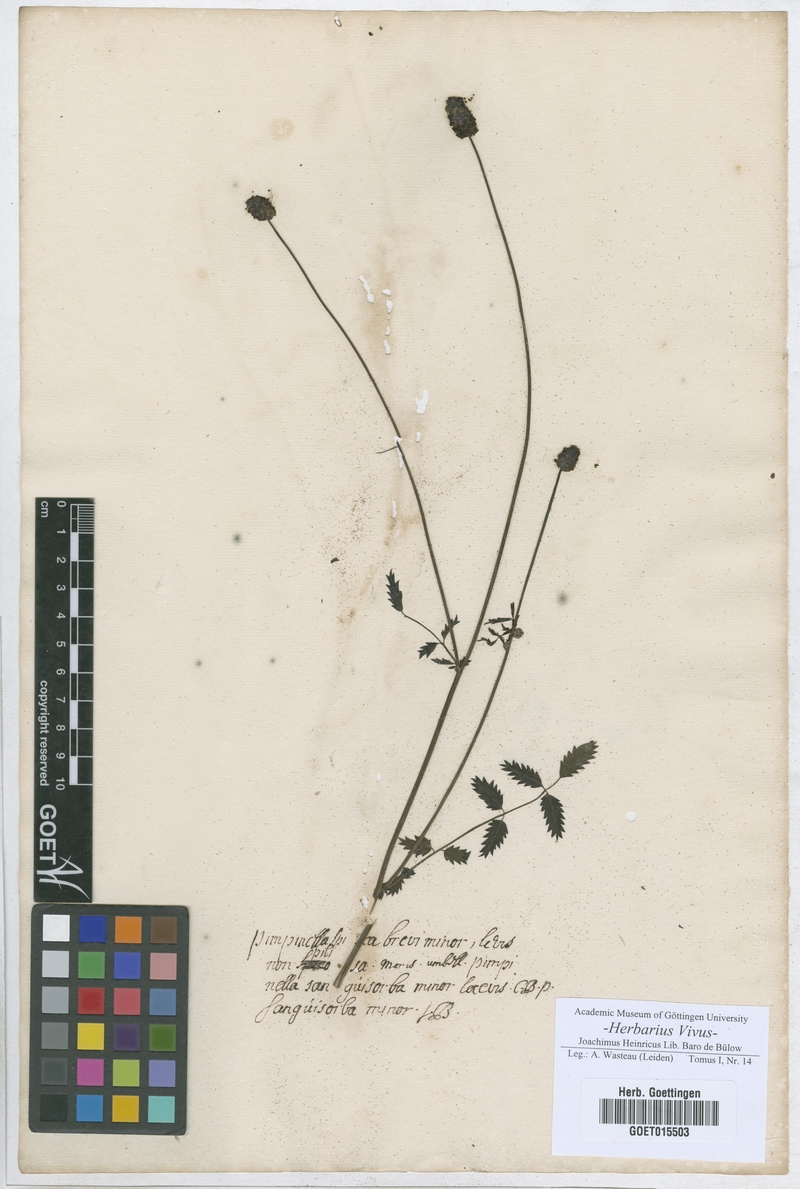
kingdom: Plantae
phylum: Tracheophyta
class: Magnoliopsida
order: Rosales
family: Rosaceae
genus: Poterium
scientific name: Poterium
